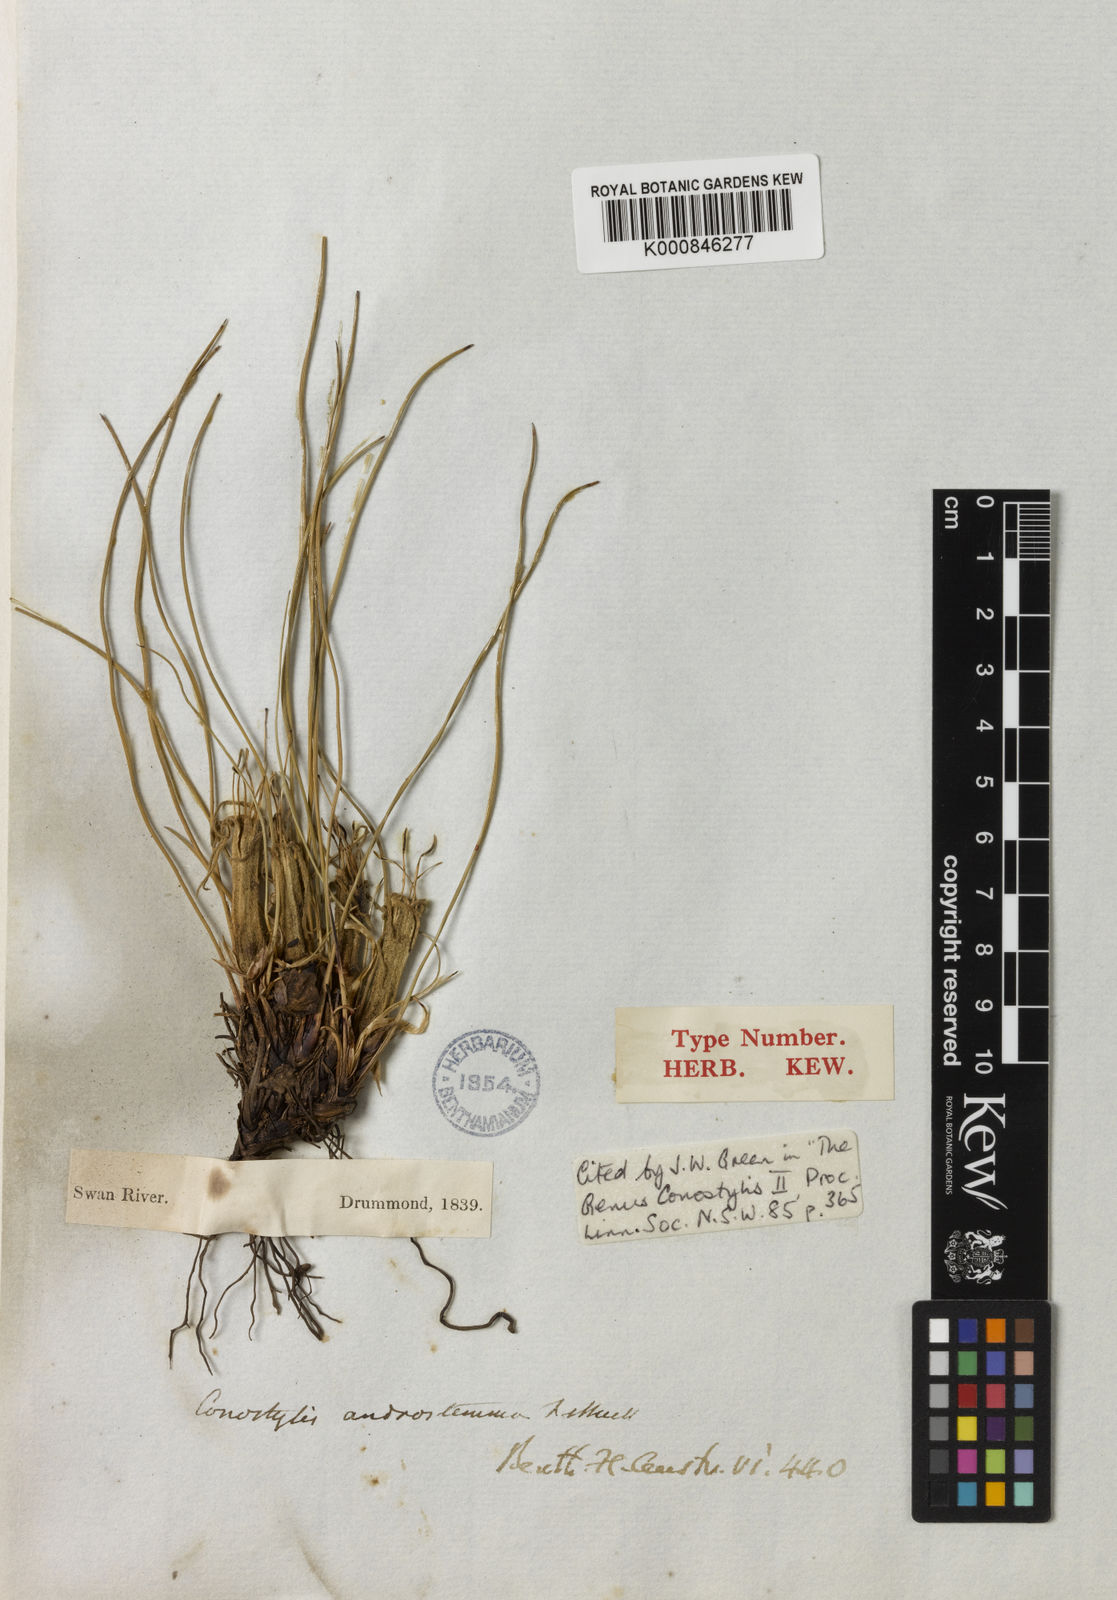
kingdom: Plantae
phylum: Tracheophyta
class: Liliopsida
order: Commelinales
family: Haemodoraceae
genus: Conostylis
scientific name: Conostylis androstemma
